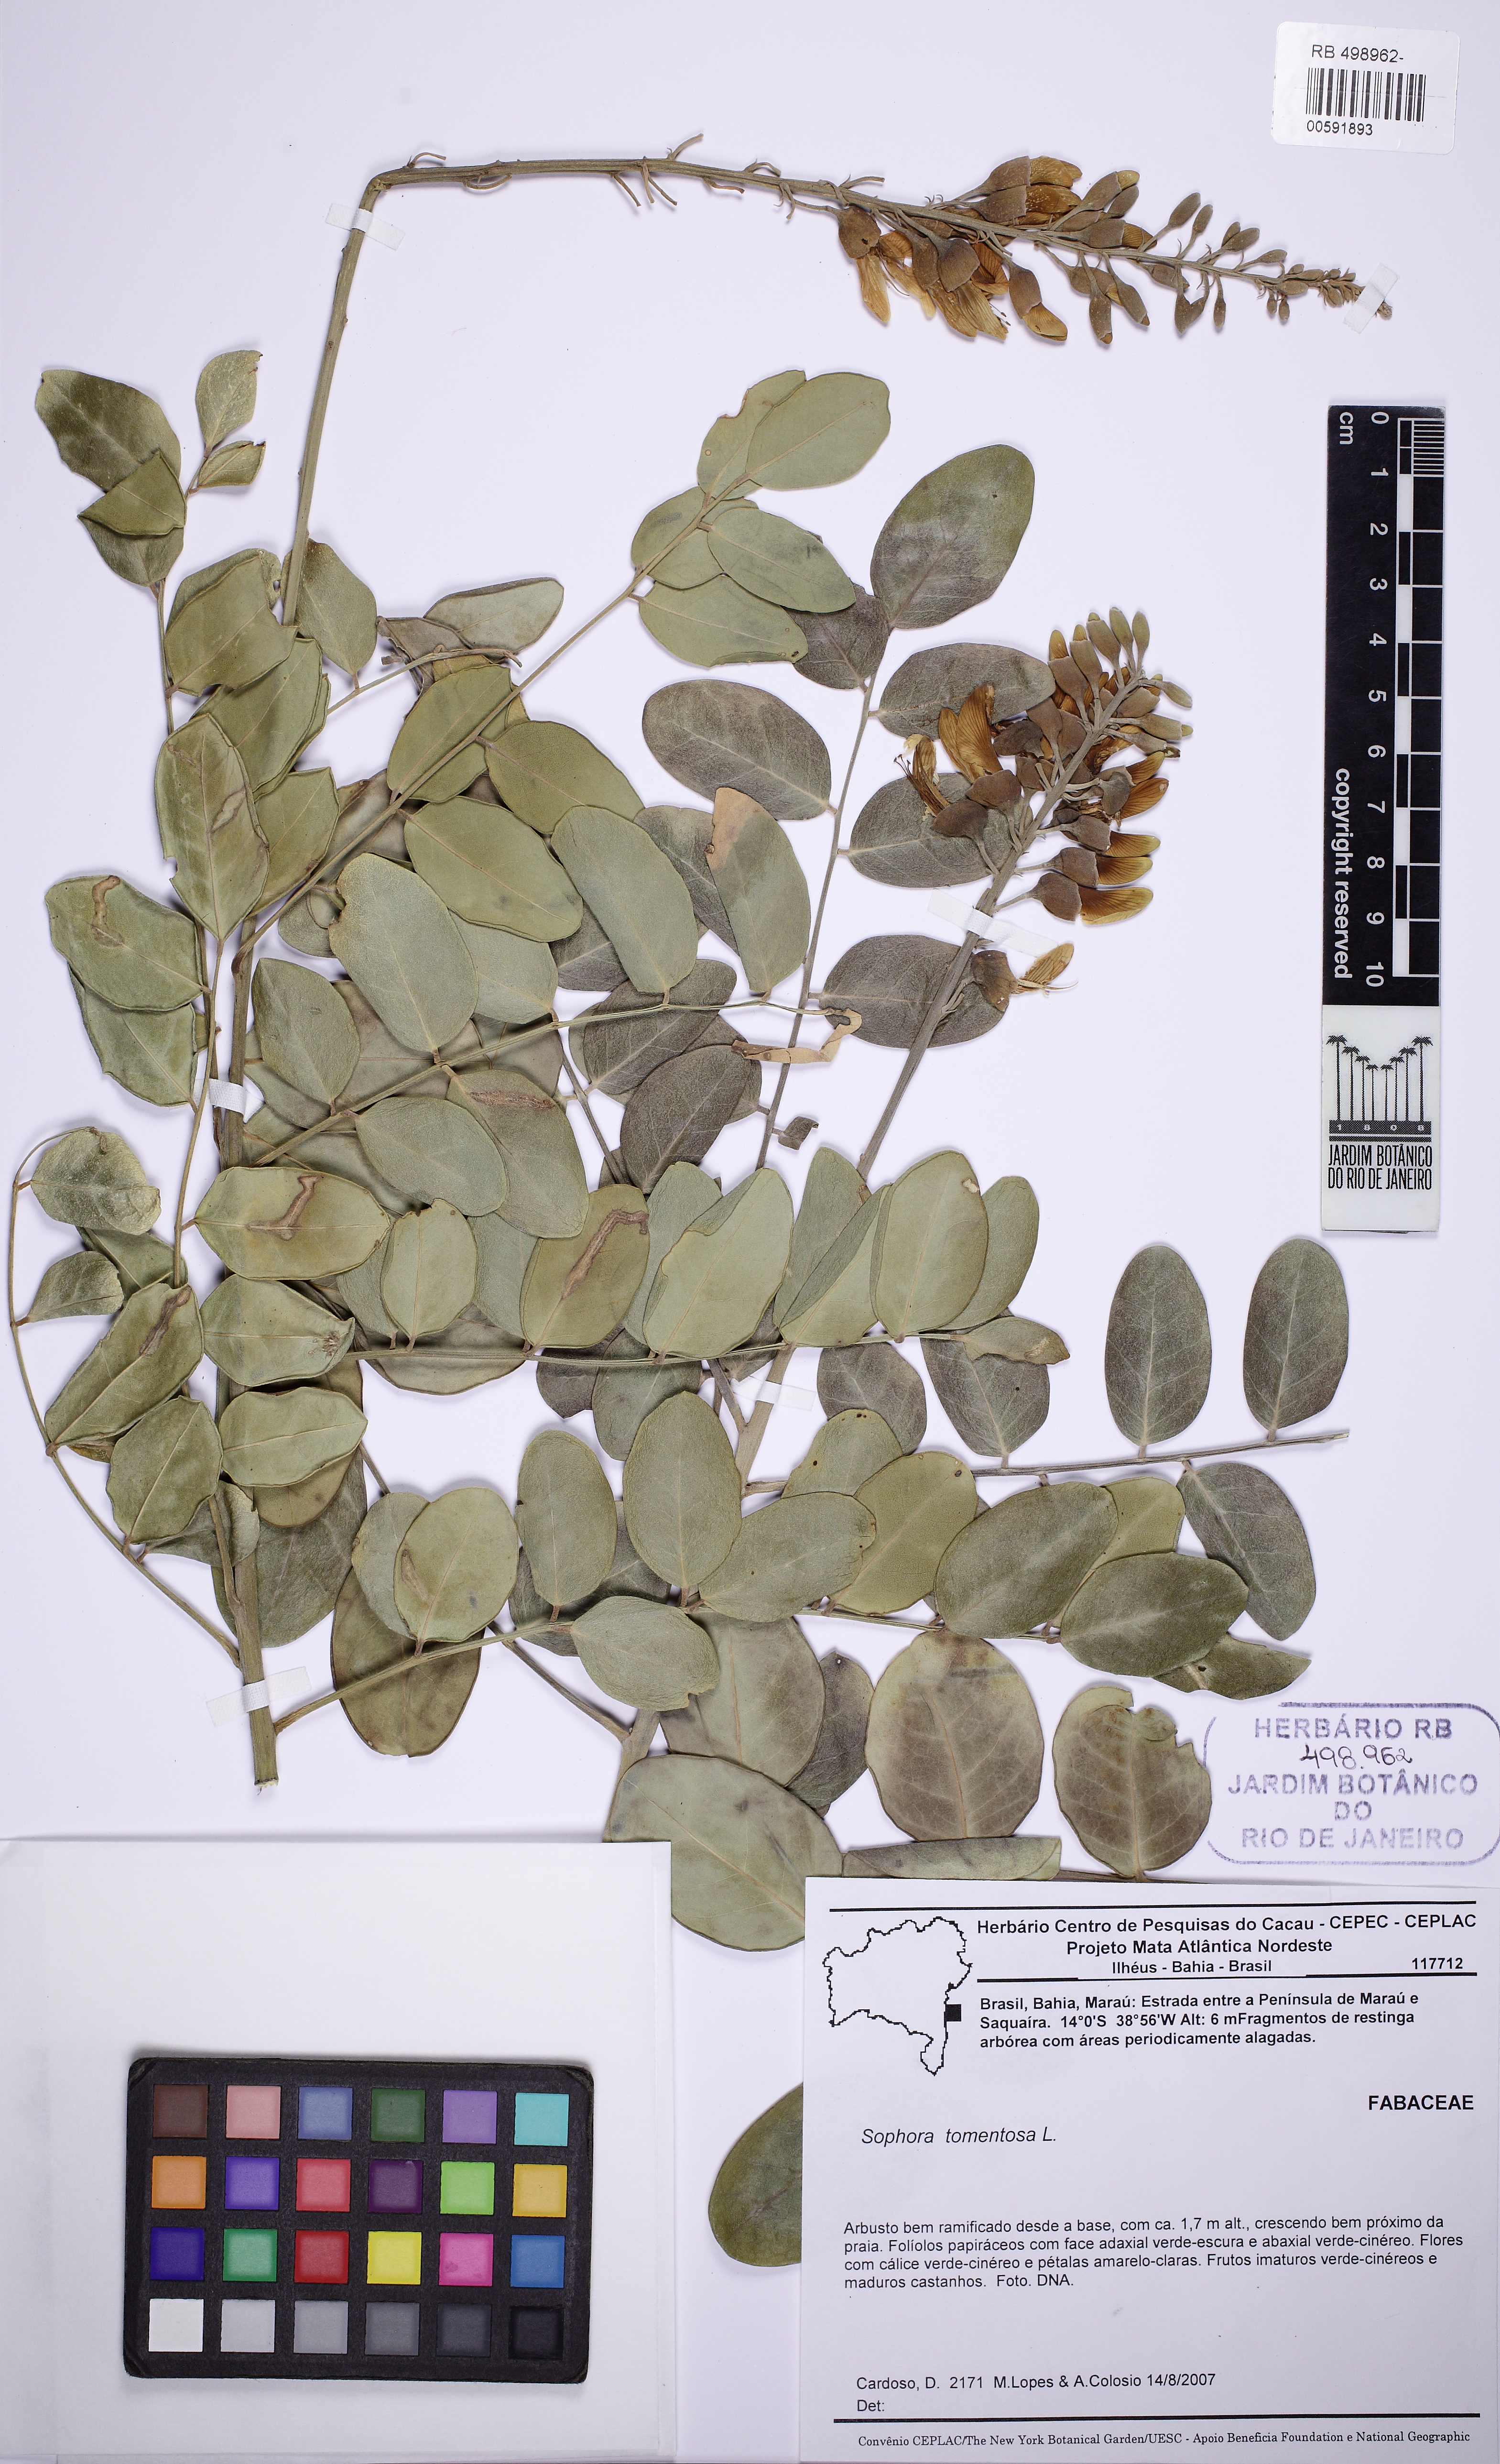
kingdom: Plantae
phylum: Tracheophyta
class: Magnoliopsida
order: Fabales
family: Fabaceae
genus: Sophora
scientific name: Sophora tomentosa
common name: Yellow necklacepod
